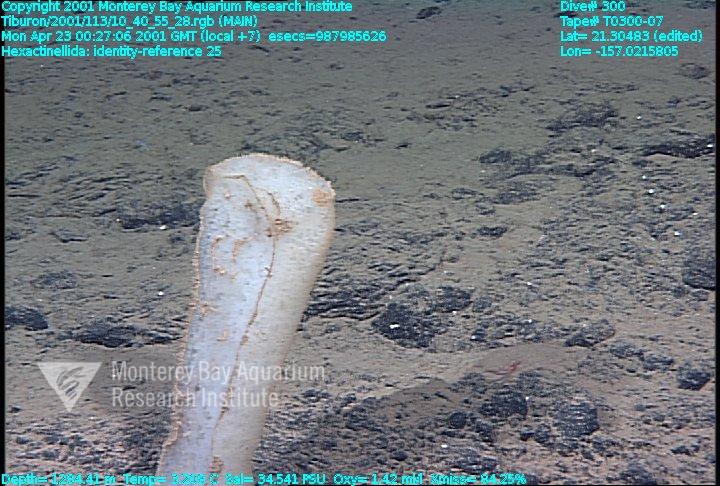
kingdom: Animalia
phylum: Porifera
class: Hexactinellida
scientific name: Hexactinellida
